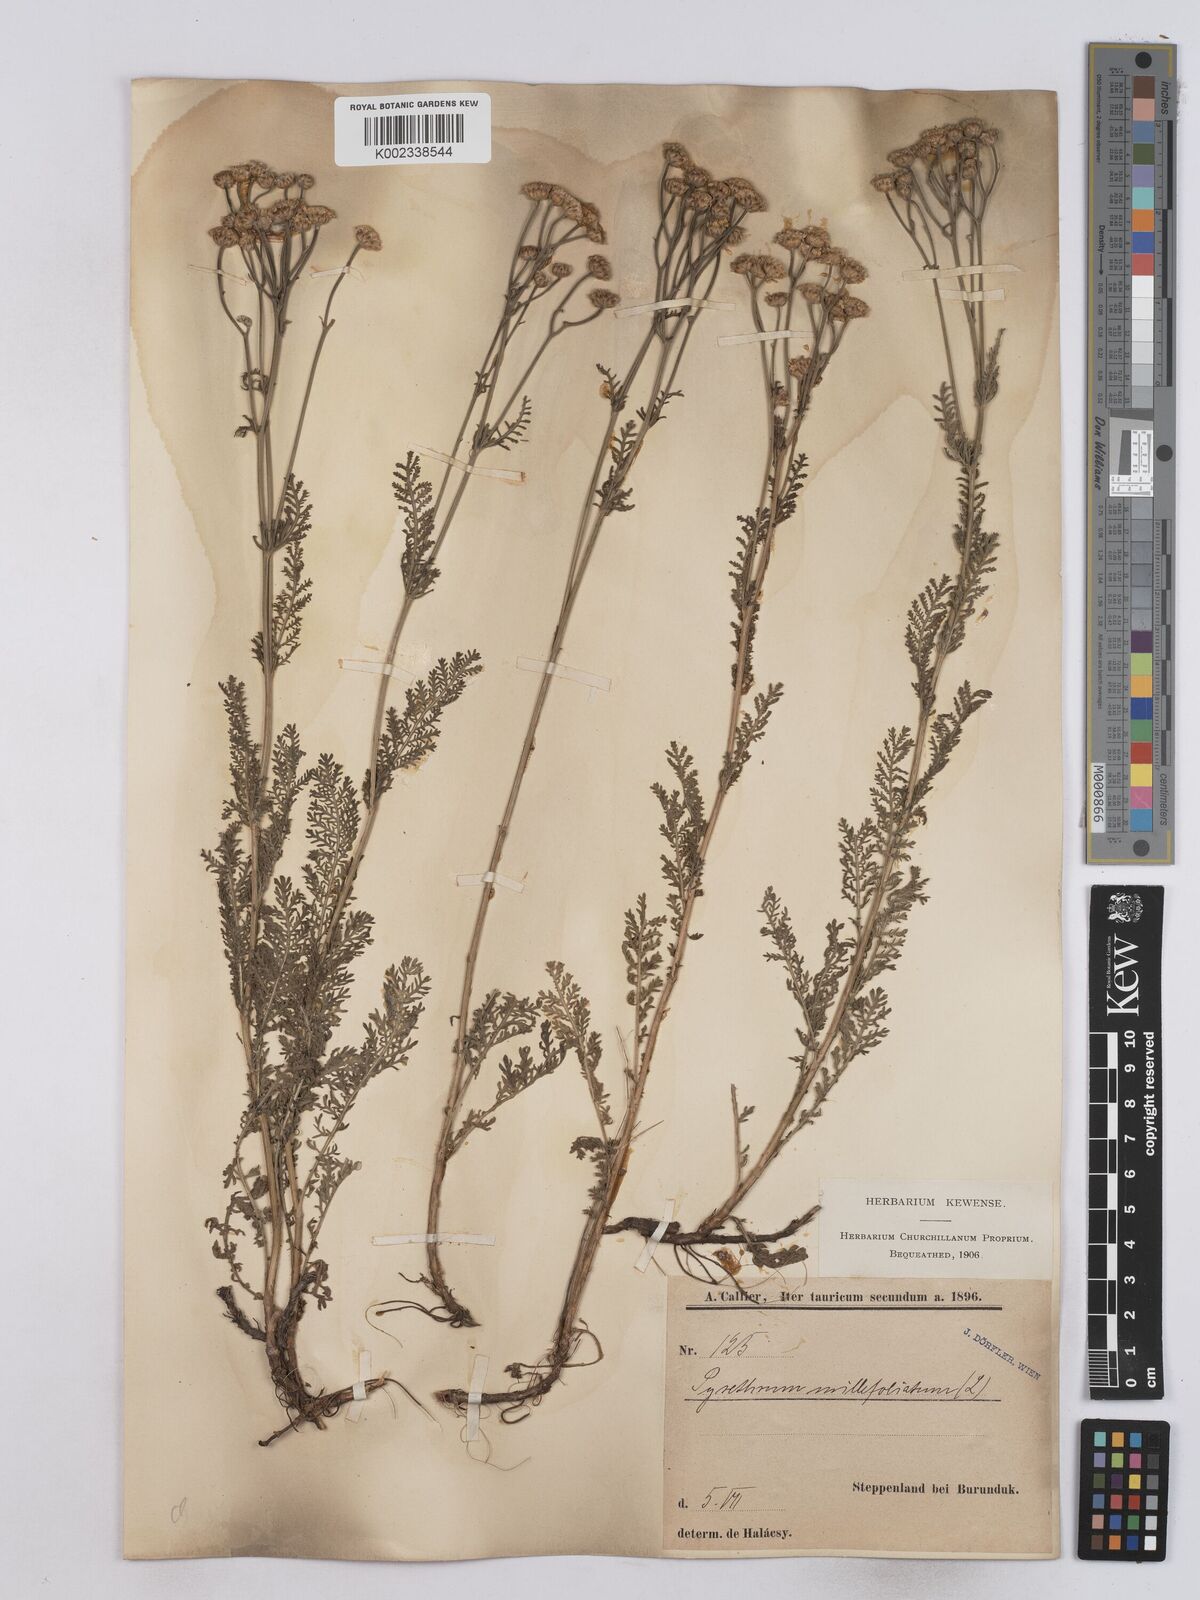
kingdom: Plantae
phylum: Tracheophyta
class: Magnoliopsida
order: Asterales
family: Asteraceae
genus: Tanacetum
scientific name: Tanacetum millefolium
